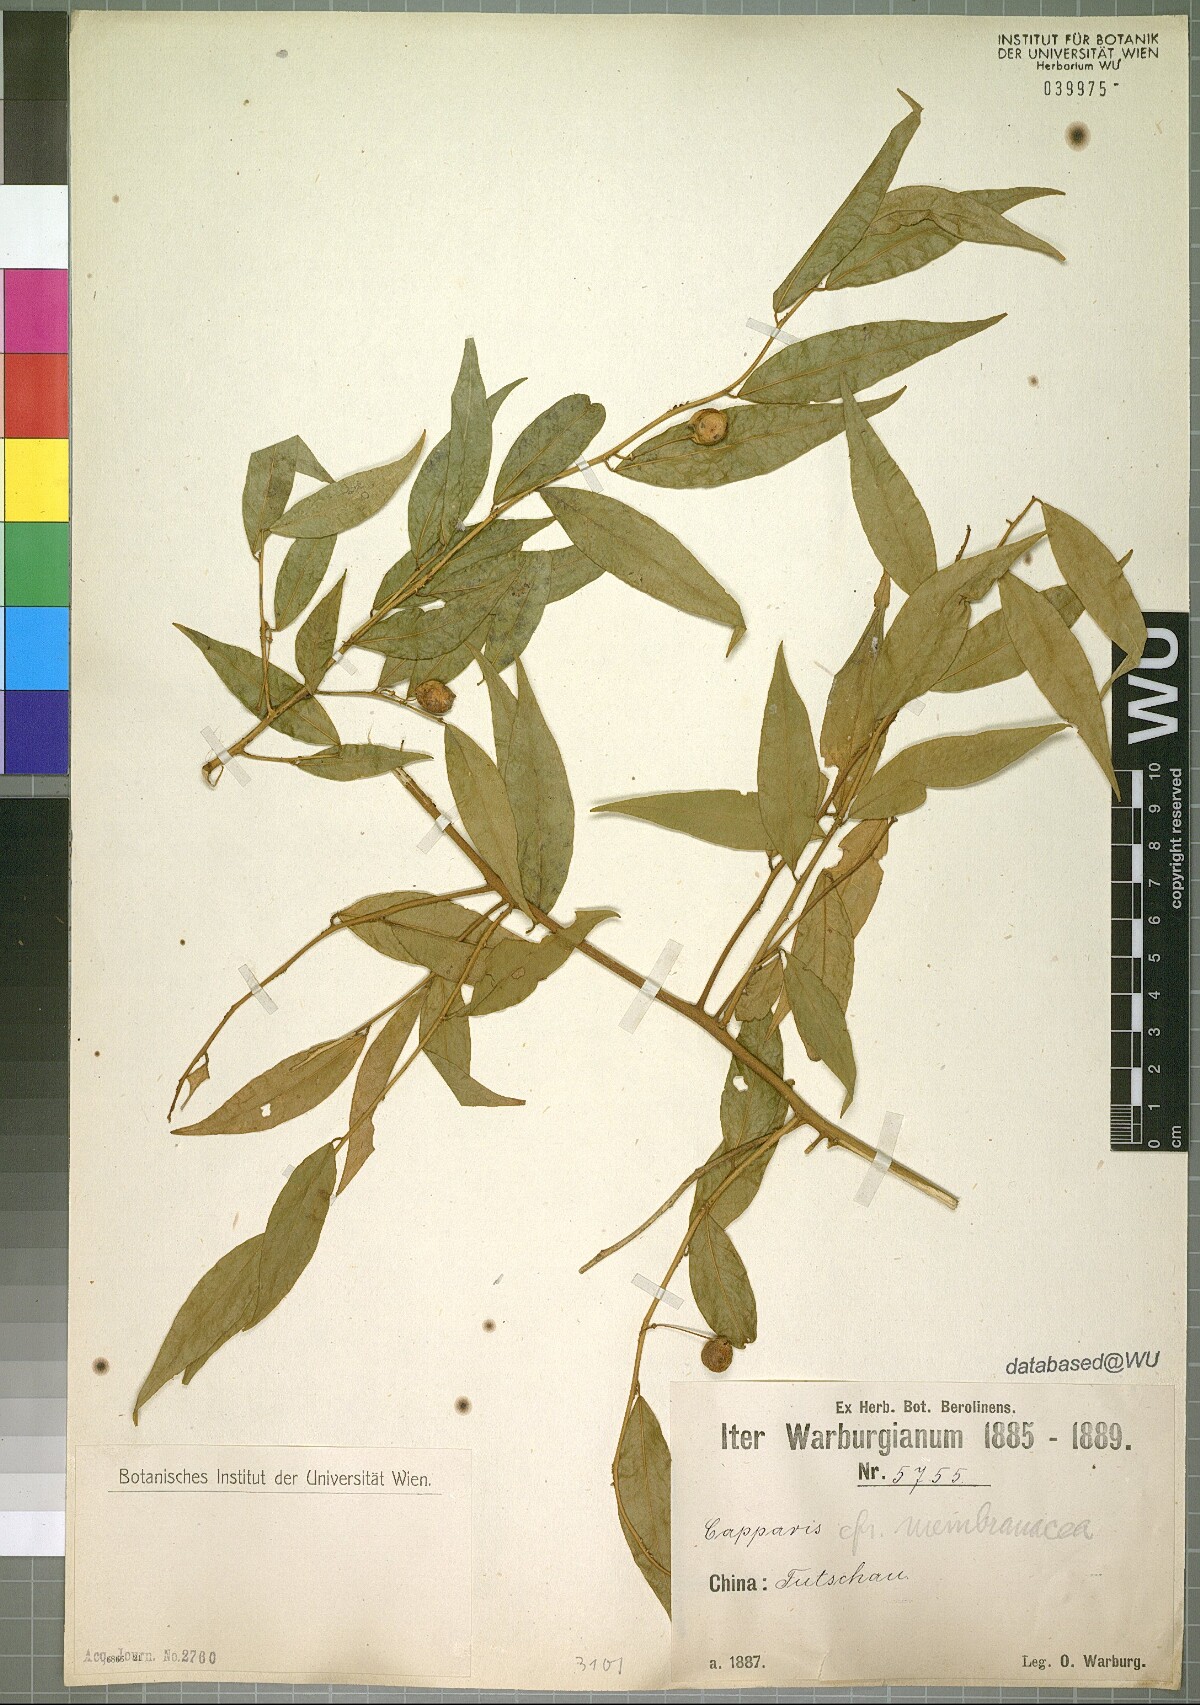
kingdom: Plantae
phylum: Tracheophyta
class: Magnoliopsida
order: Brassicales
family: Capparaceae
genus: Capparis
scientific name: Capparis acutifolia
